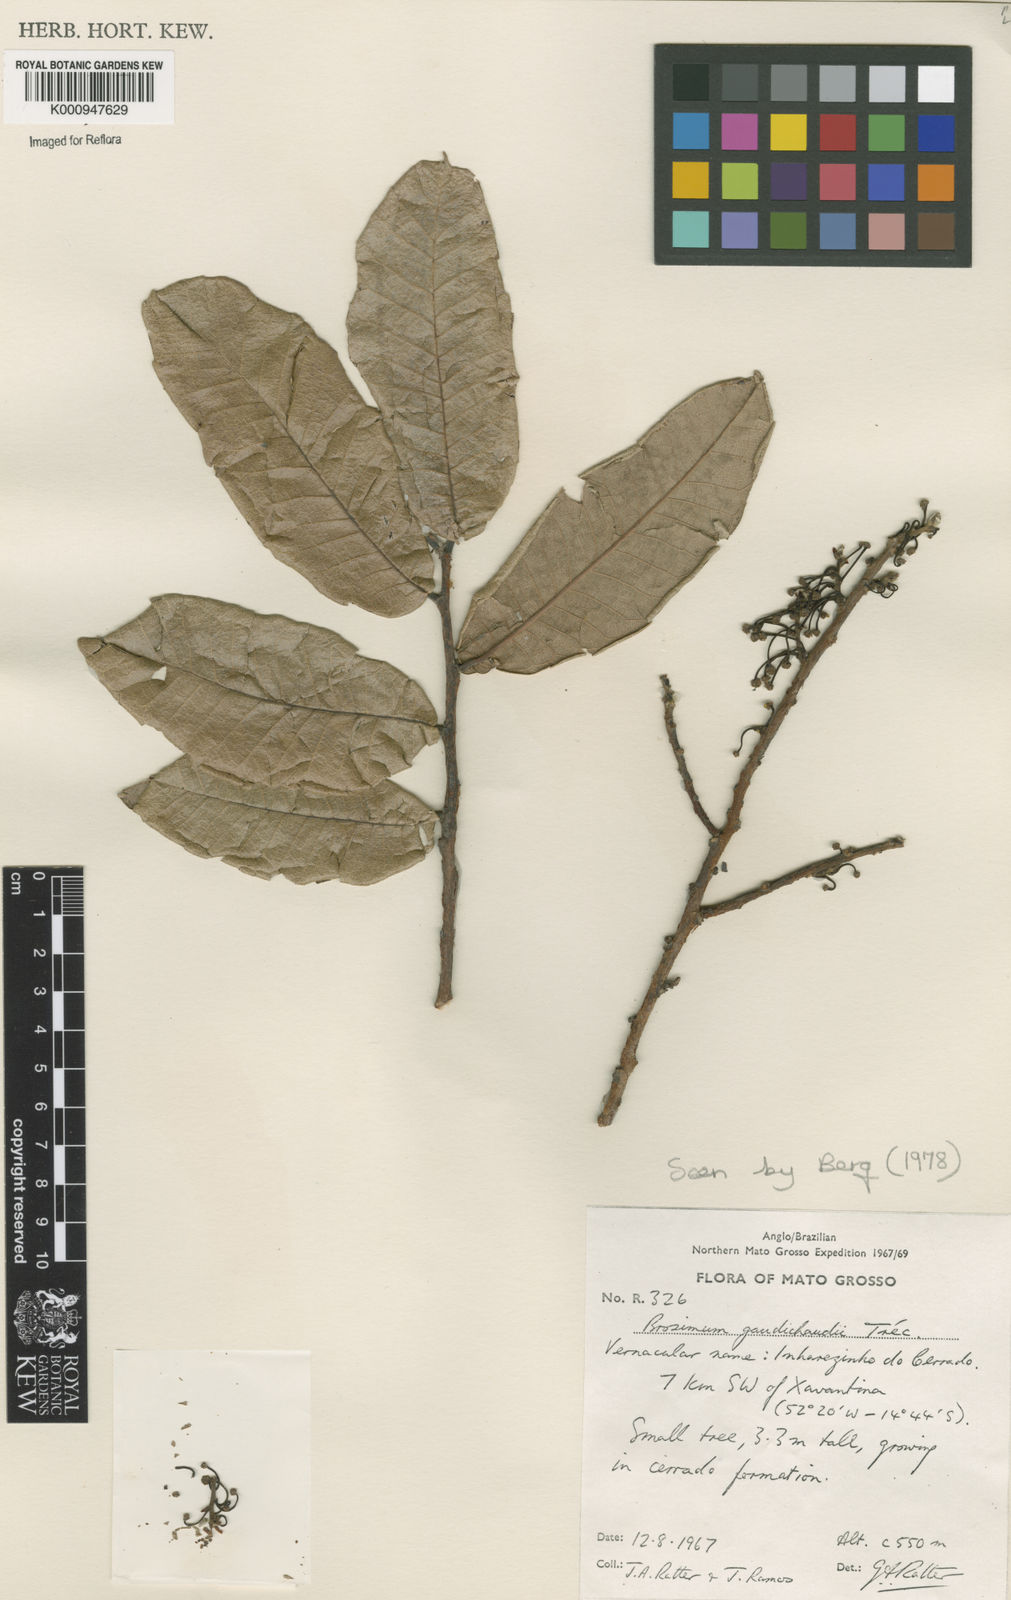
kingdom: Plantae
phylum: Tracheophyta
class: Magnoliopsida
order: Rosales
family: Moraceae
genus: Brosimum
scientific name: Brosimum
